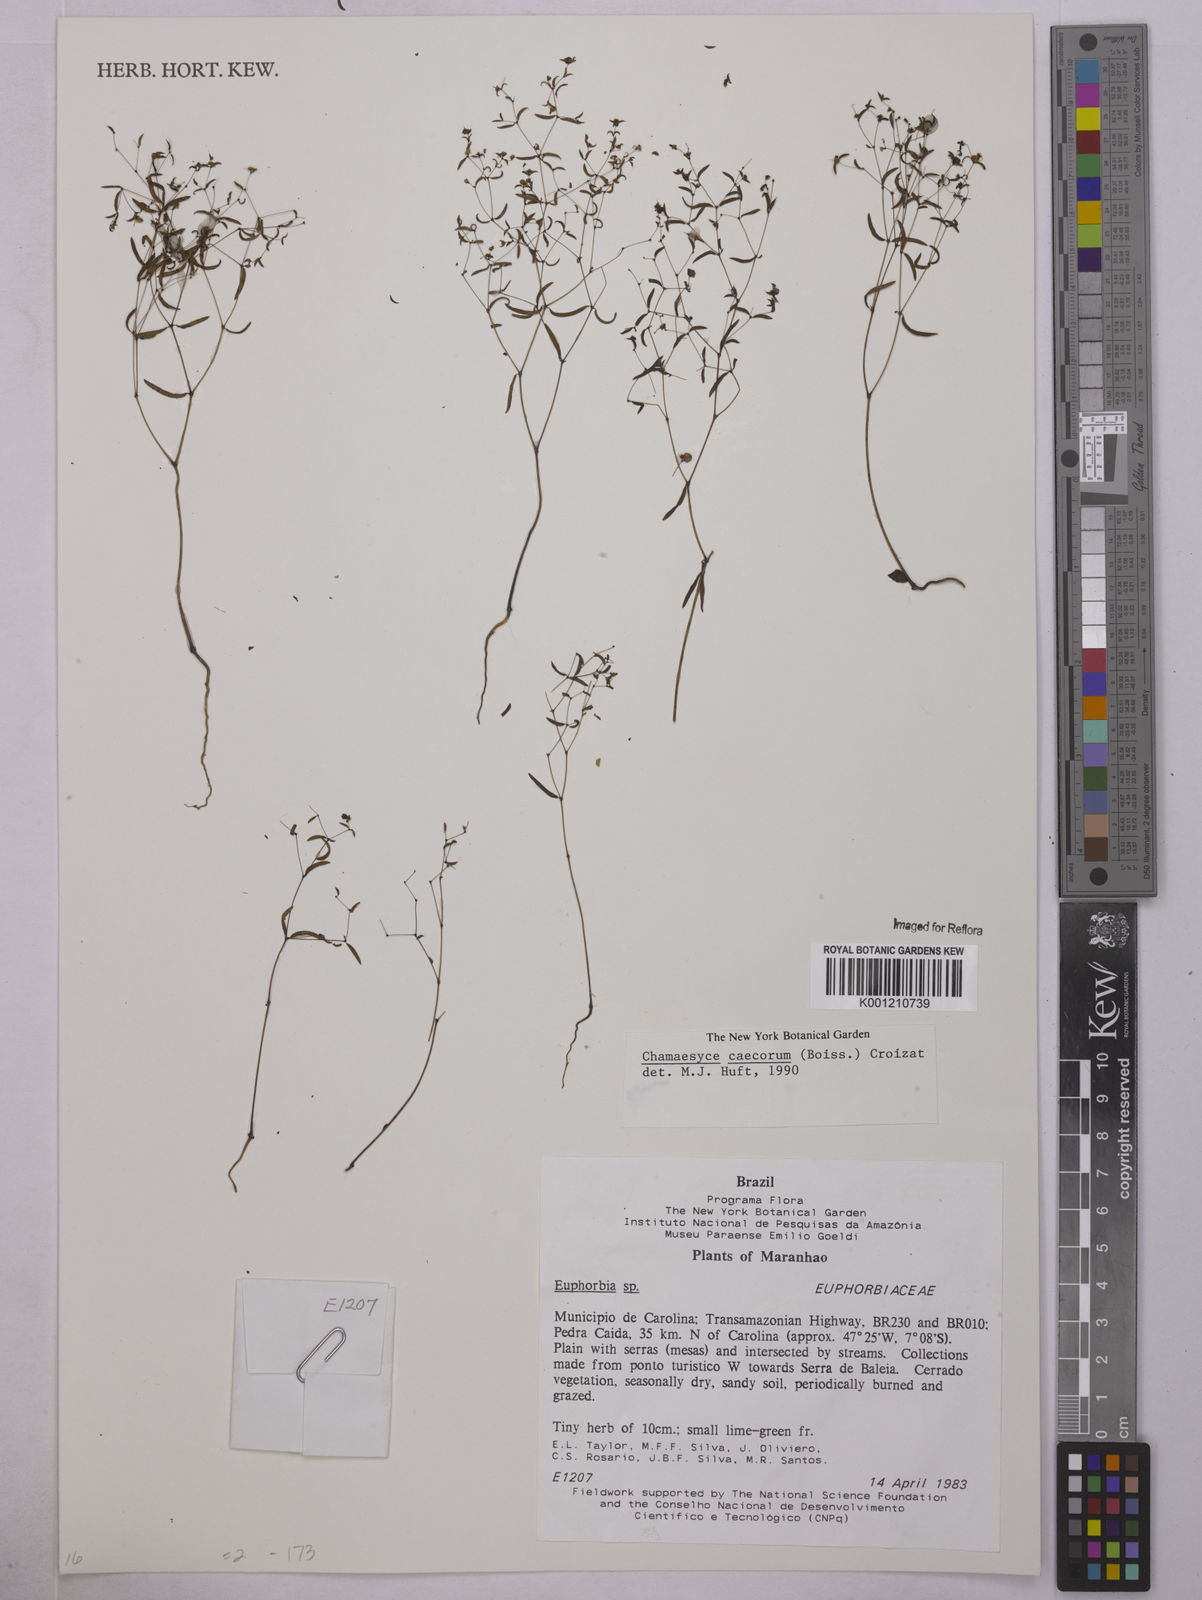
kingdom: Plantae
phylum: Tracheophyta
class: Magnoliopsida
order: Malpighiales
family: Euphorbiaceae
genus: Euphorbia
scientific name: Euphorbia potentilloides
